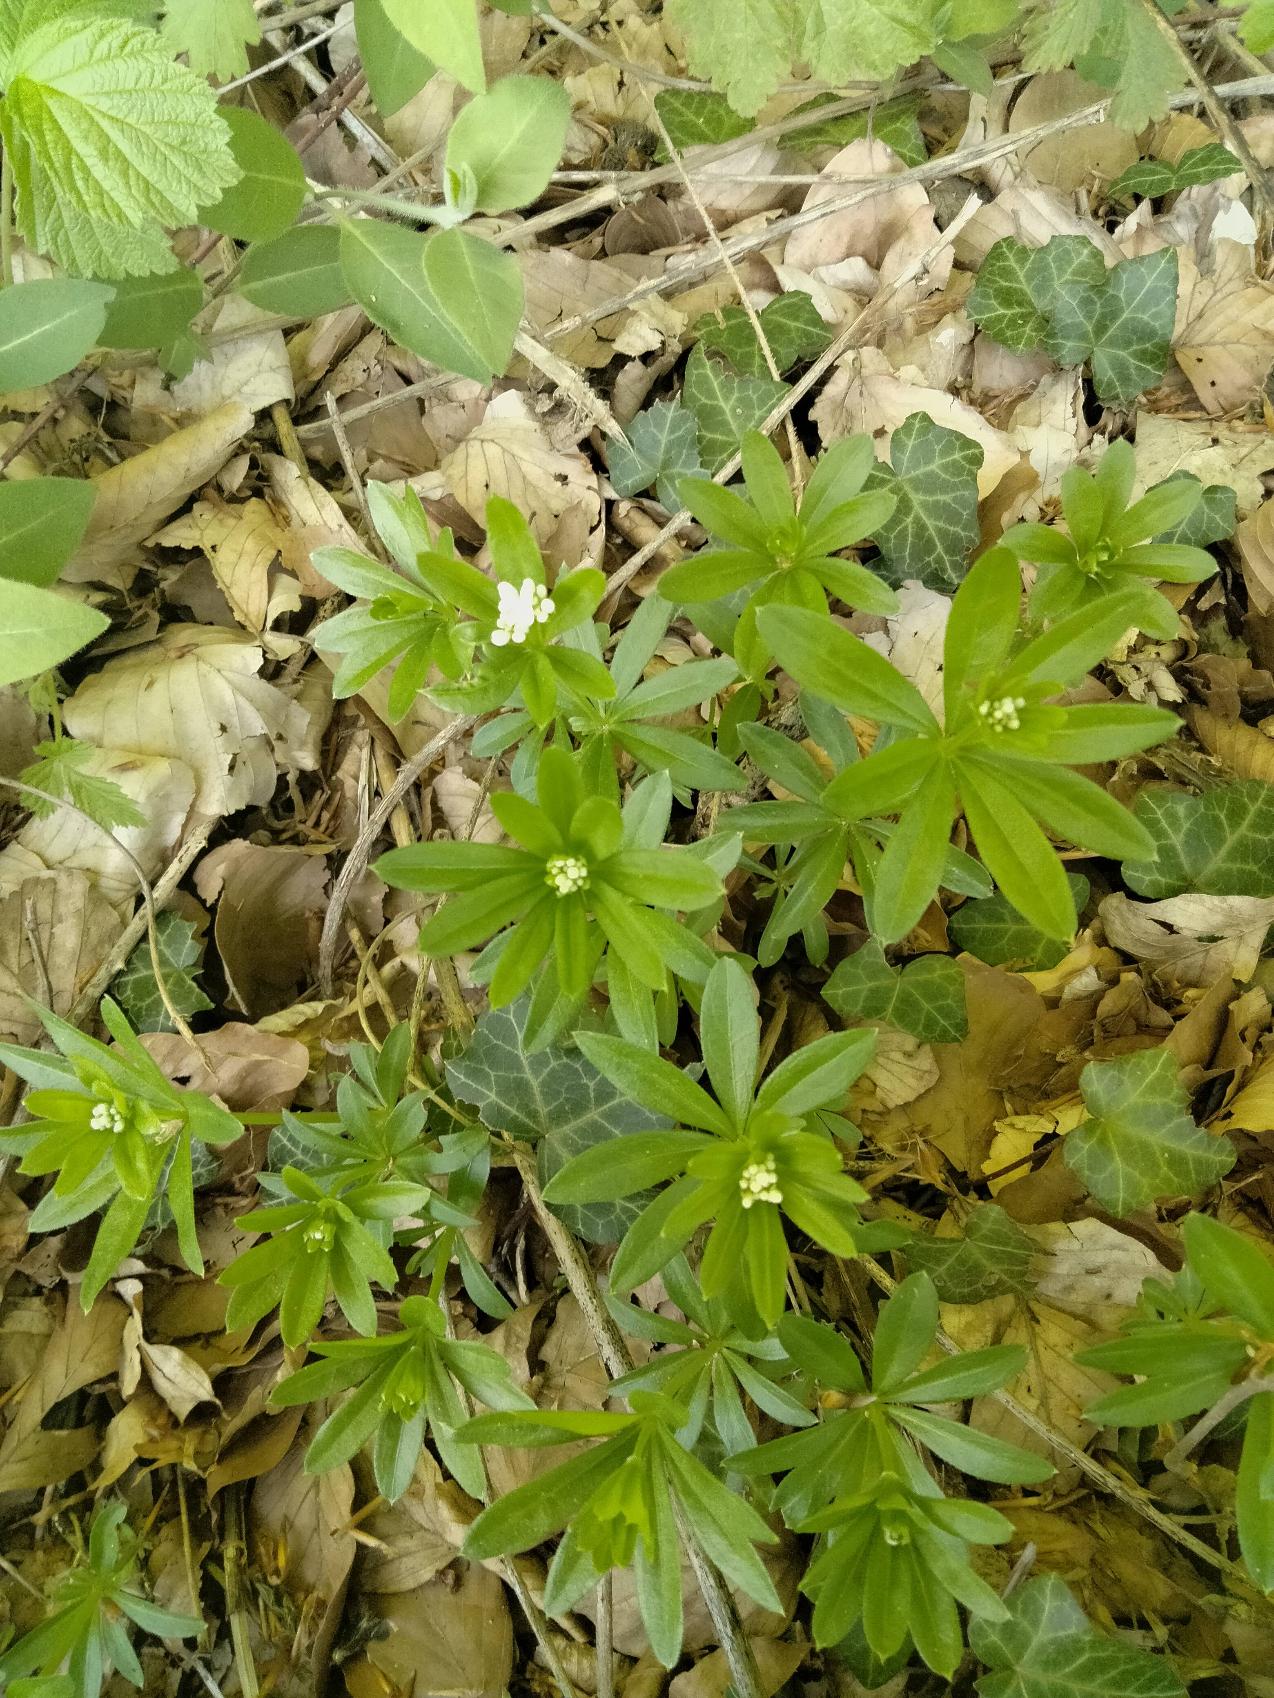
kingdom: Plantae
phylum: Tracheophyta
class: Magnoliopsida
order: Gentianales
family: Rubiaceae
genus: Galium
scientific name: Galium odoratum
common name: Skovmærke
